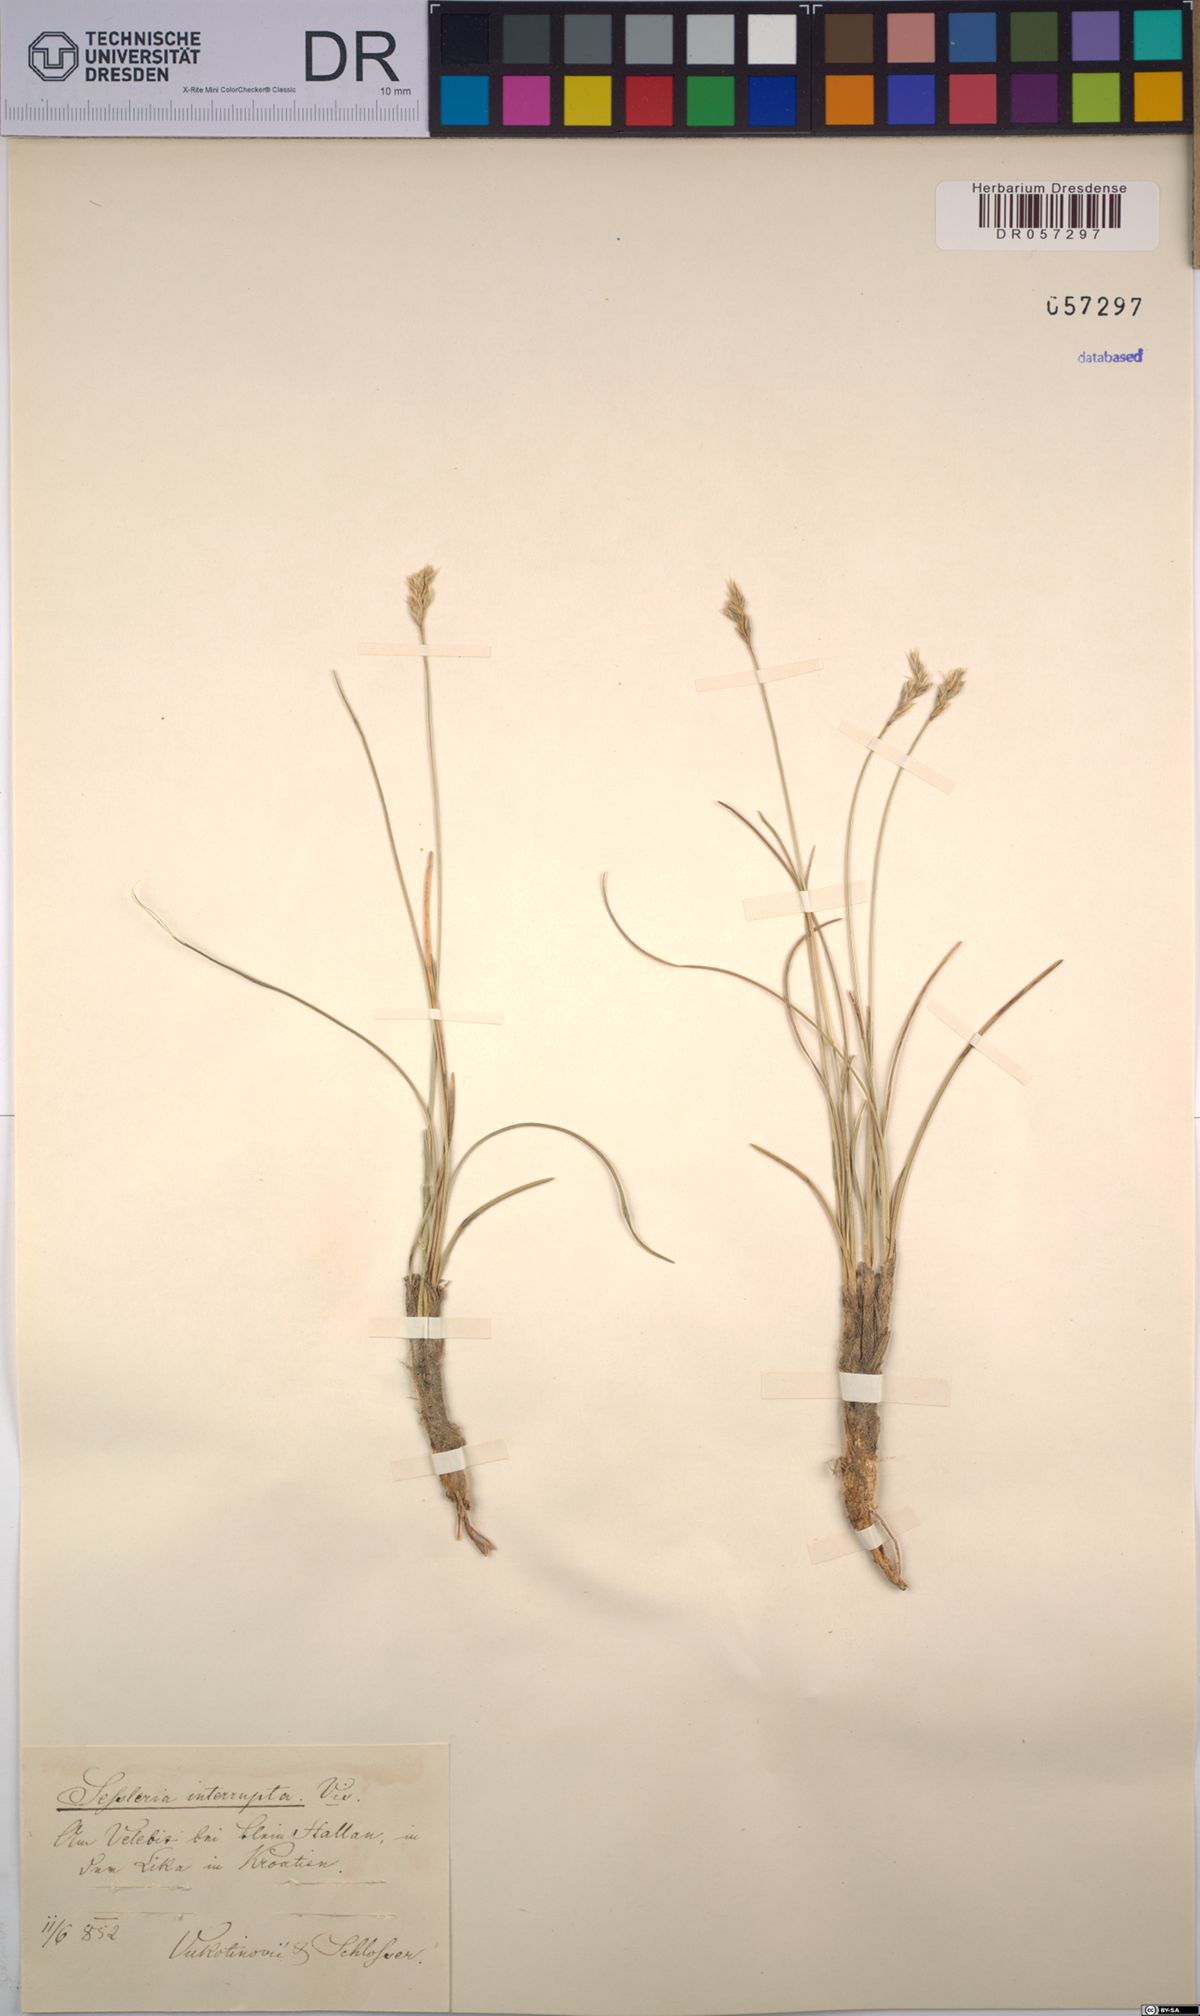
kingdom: Plantae
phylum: Tracheophyta
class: Liliopsida
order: Poales
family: Poaceae
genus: Sesleria
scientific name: Sesleria juncifolia
